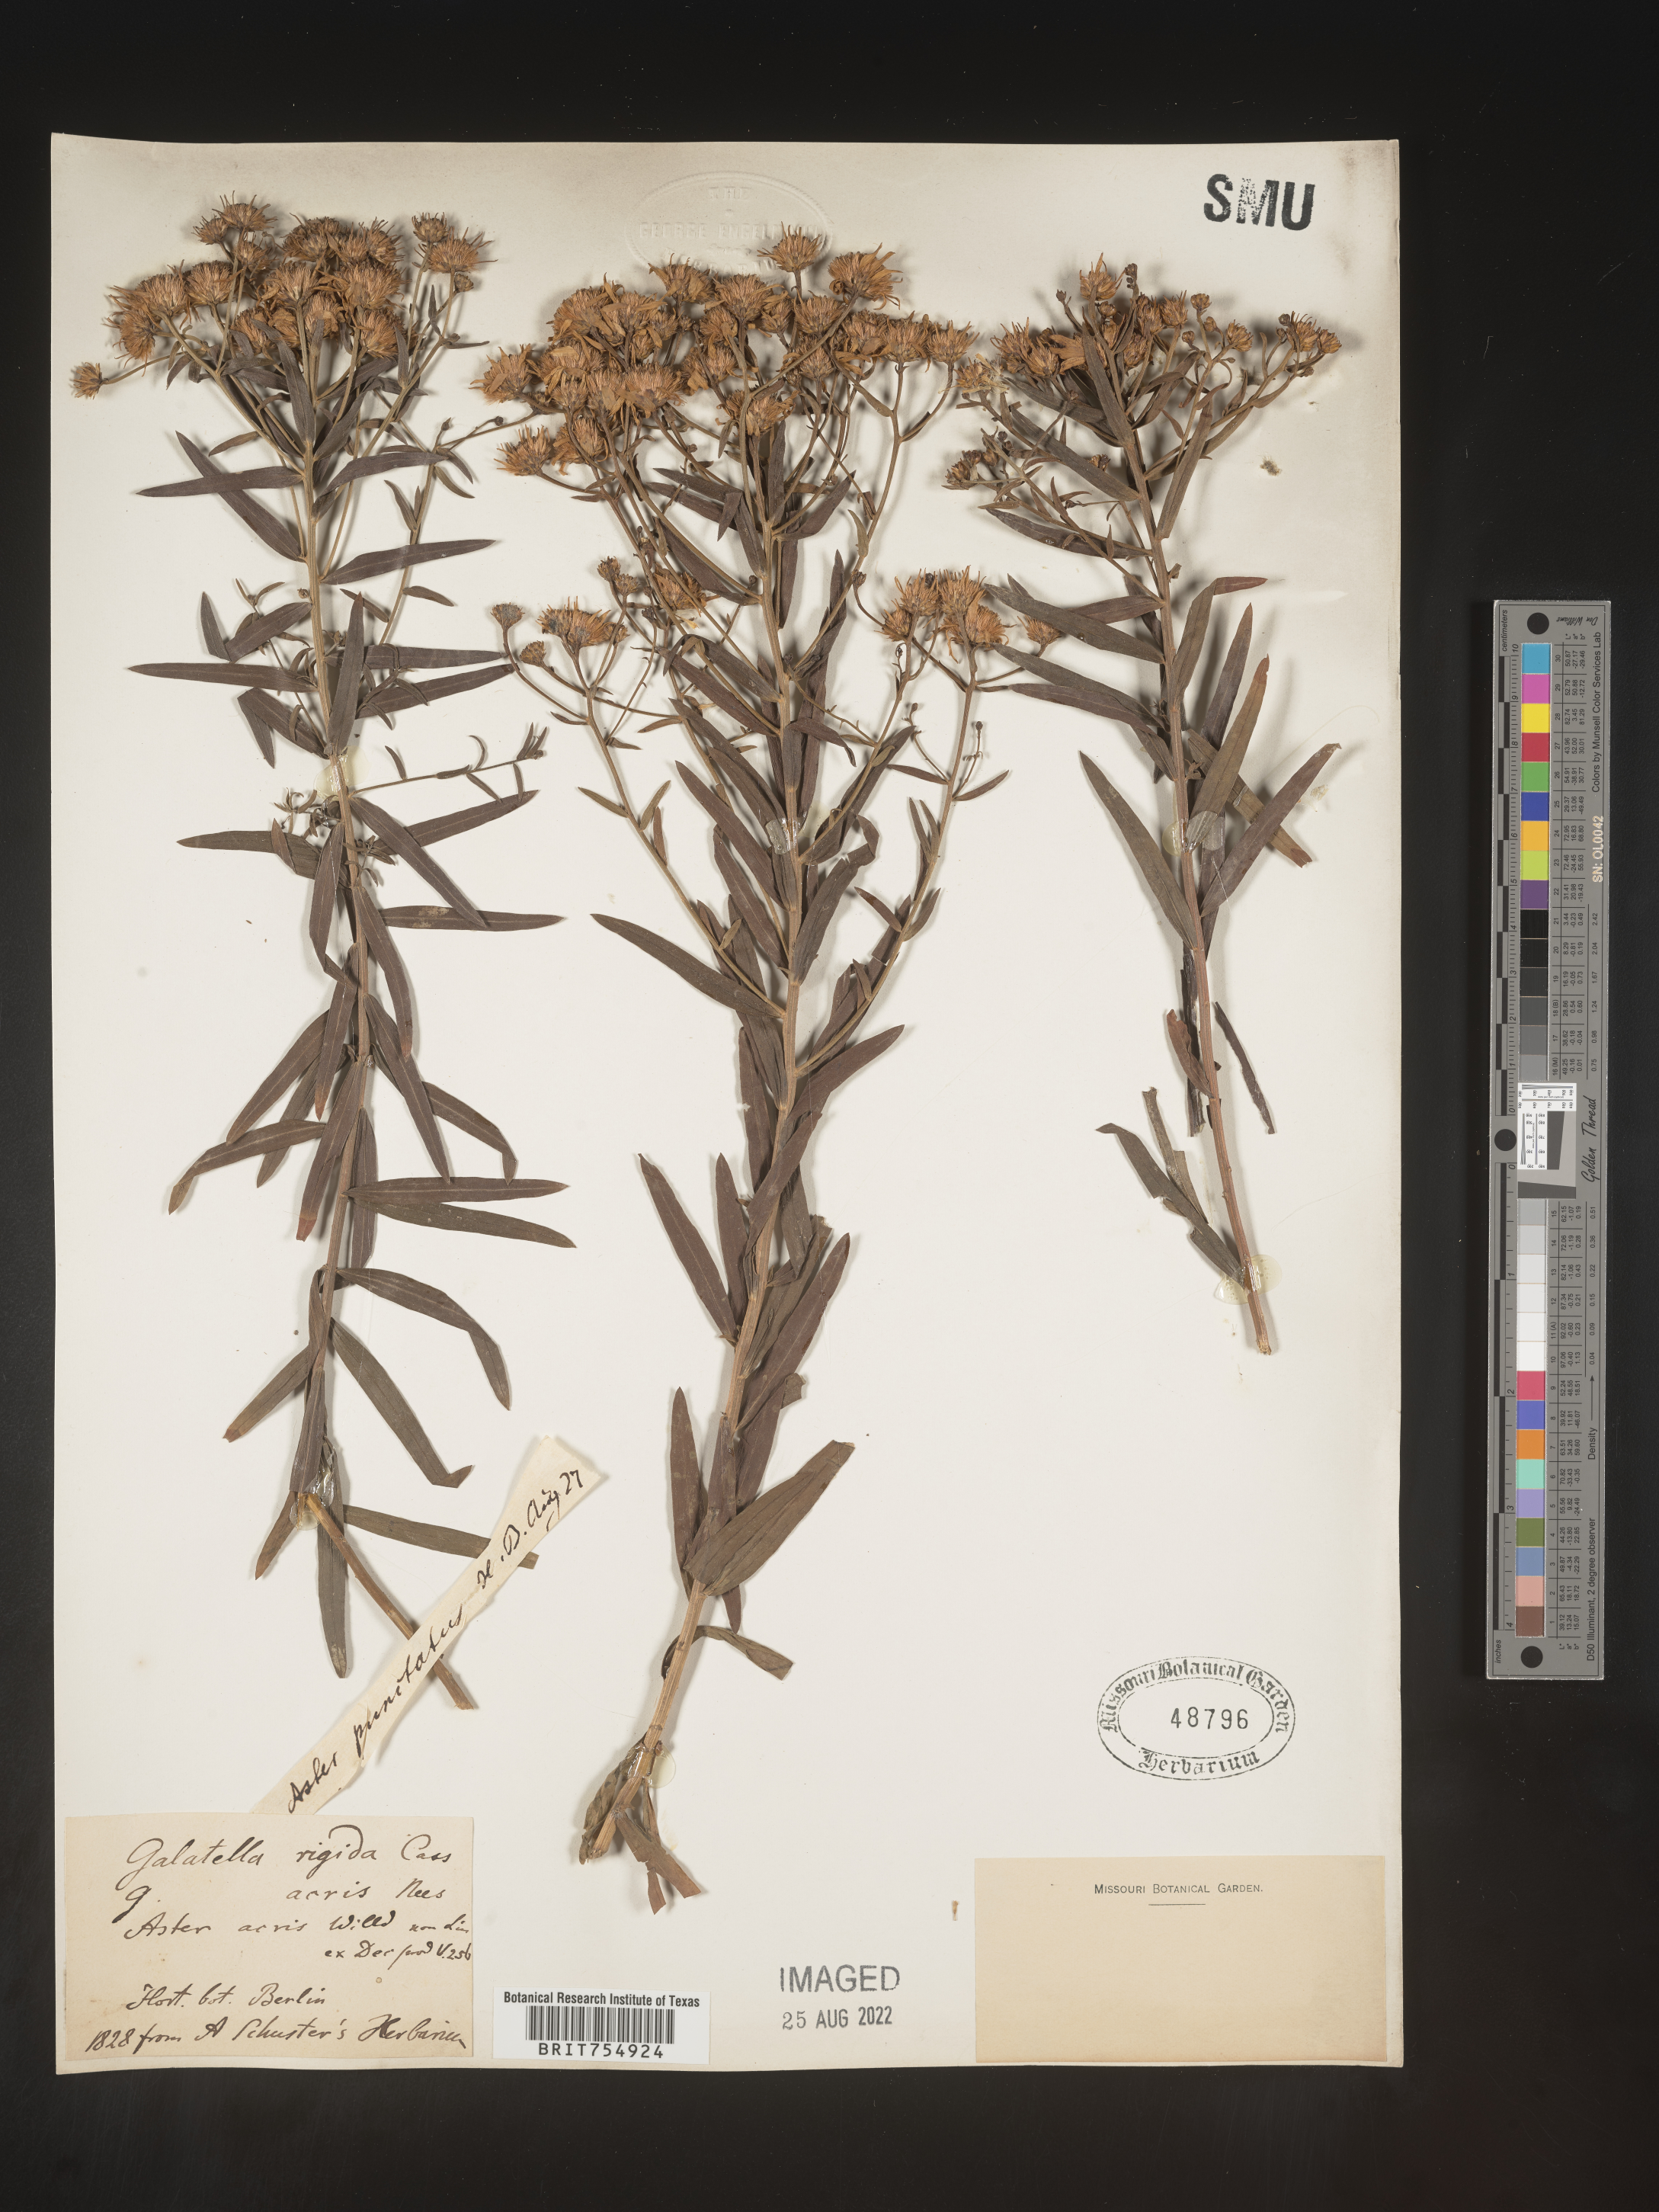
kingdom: Plantae
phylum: Tracheophyta
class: Magnoliopsida
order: Asterales
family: Asteraceae
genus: Symphyotrichum
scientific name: Symphyotrichum
